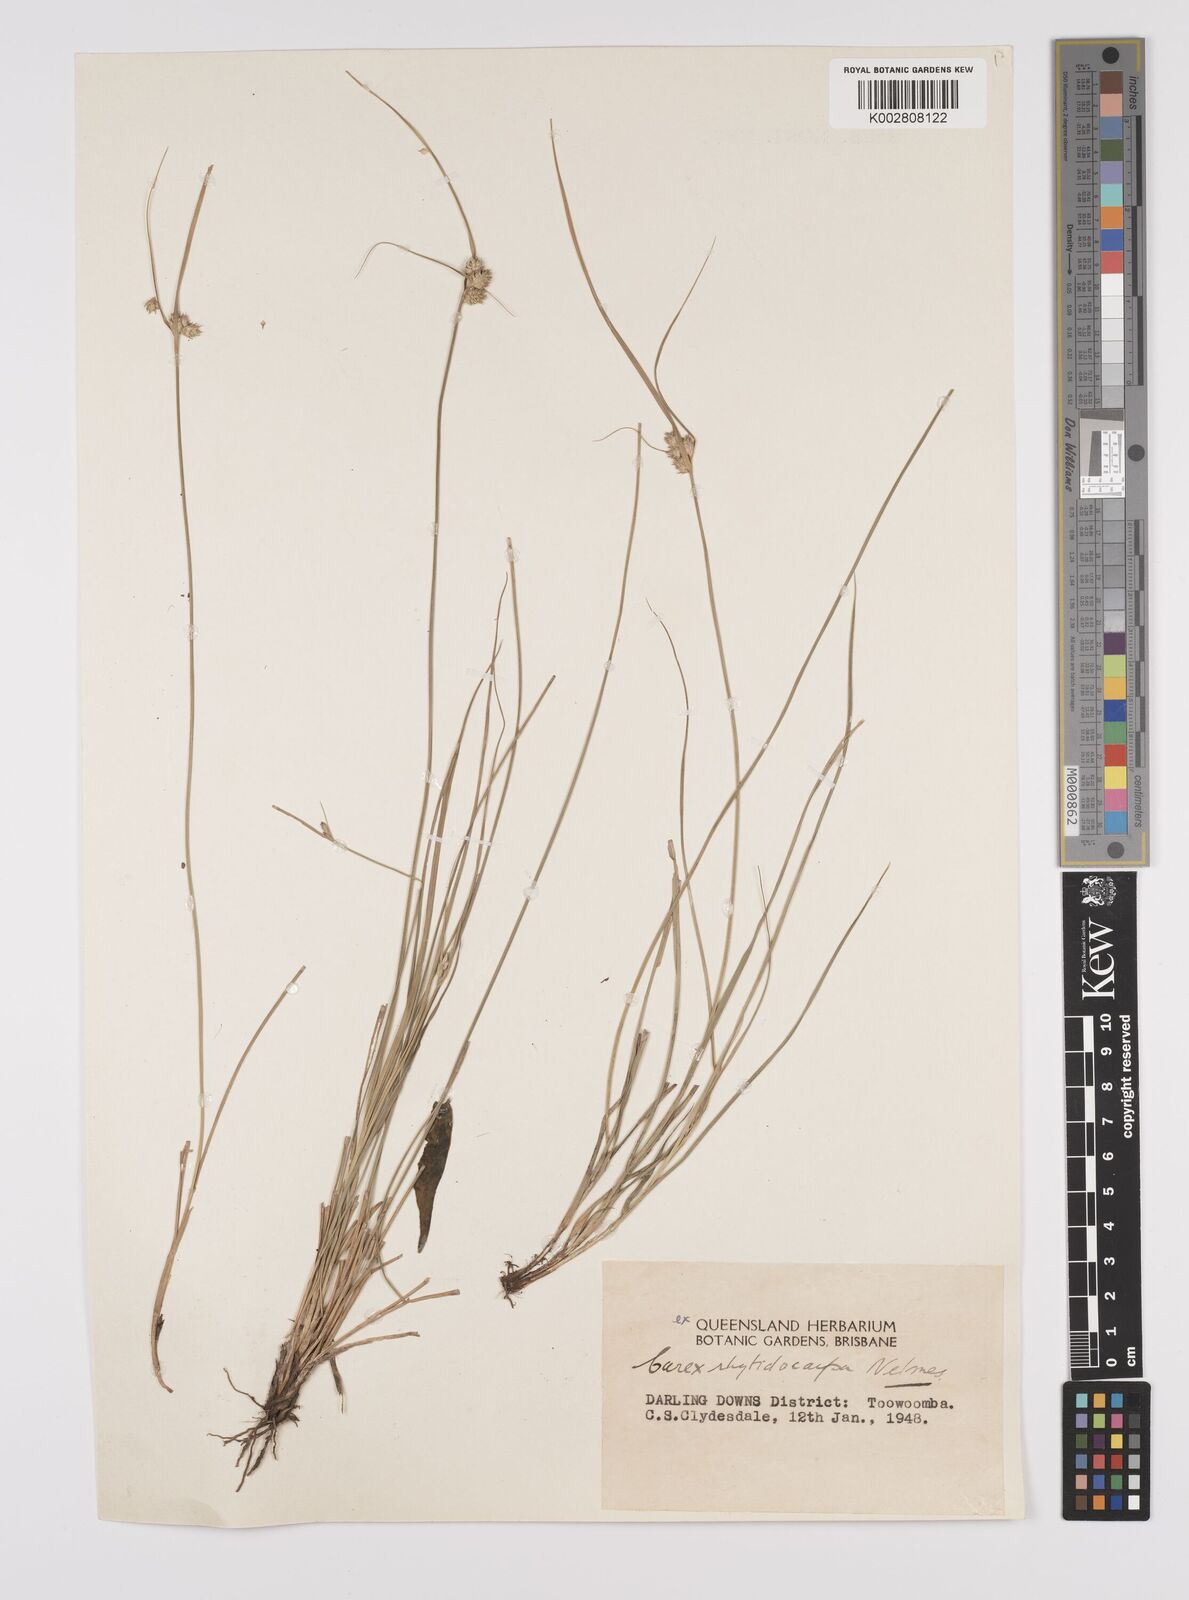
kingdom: Plantae
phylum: Tracheophyta
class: Liliopsida
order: Poales
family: Cyperaceae
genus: Carex
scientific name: Carex inversa
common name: Knob sedge
